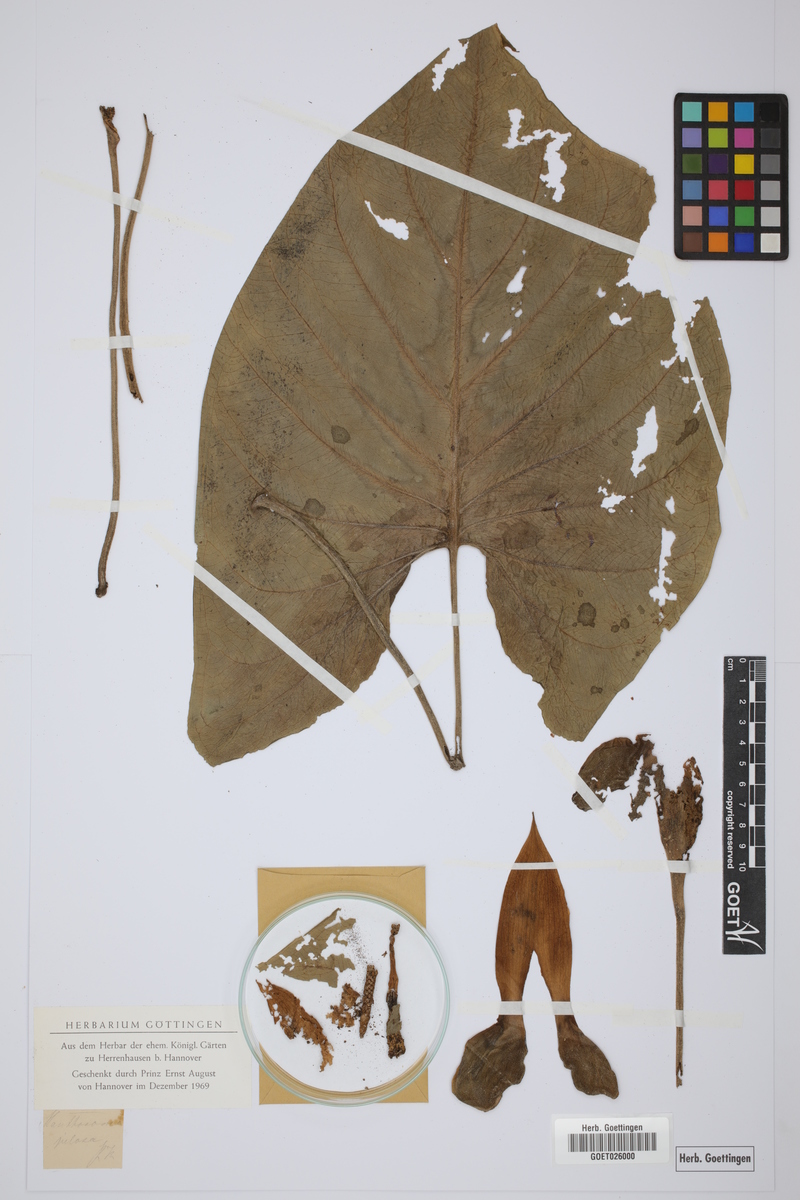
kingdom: Plantae
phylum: Tracheophyta
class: Liliopsida
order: Alismatales
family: Araceae
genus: Xanthosoma
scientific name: Xanthosoma mexicanum
